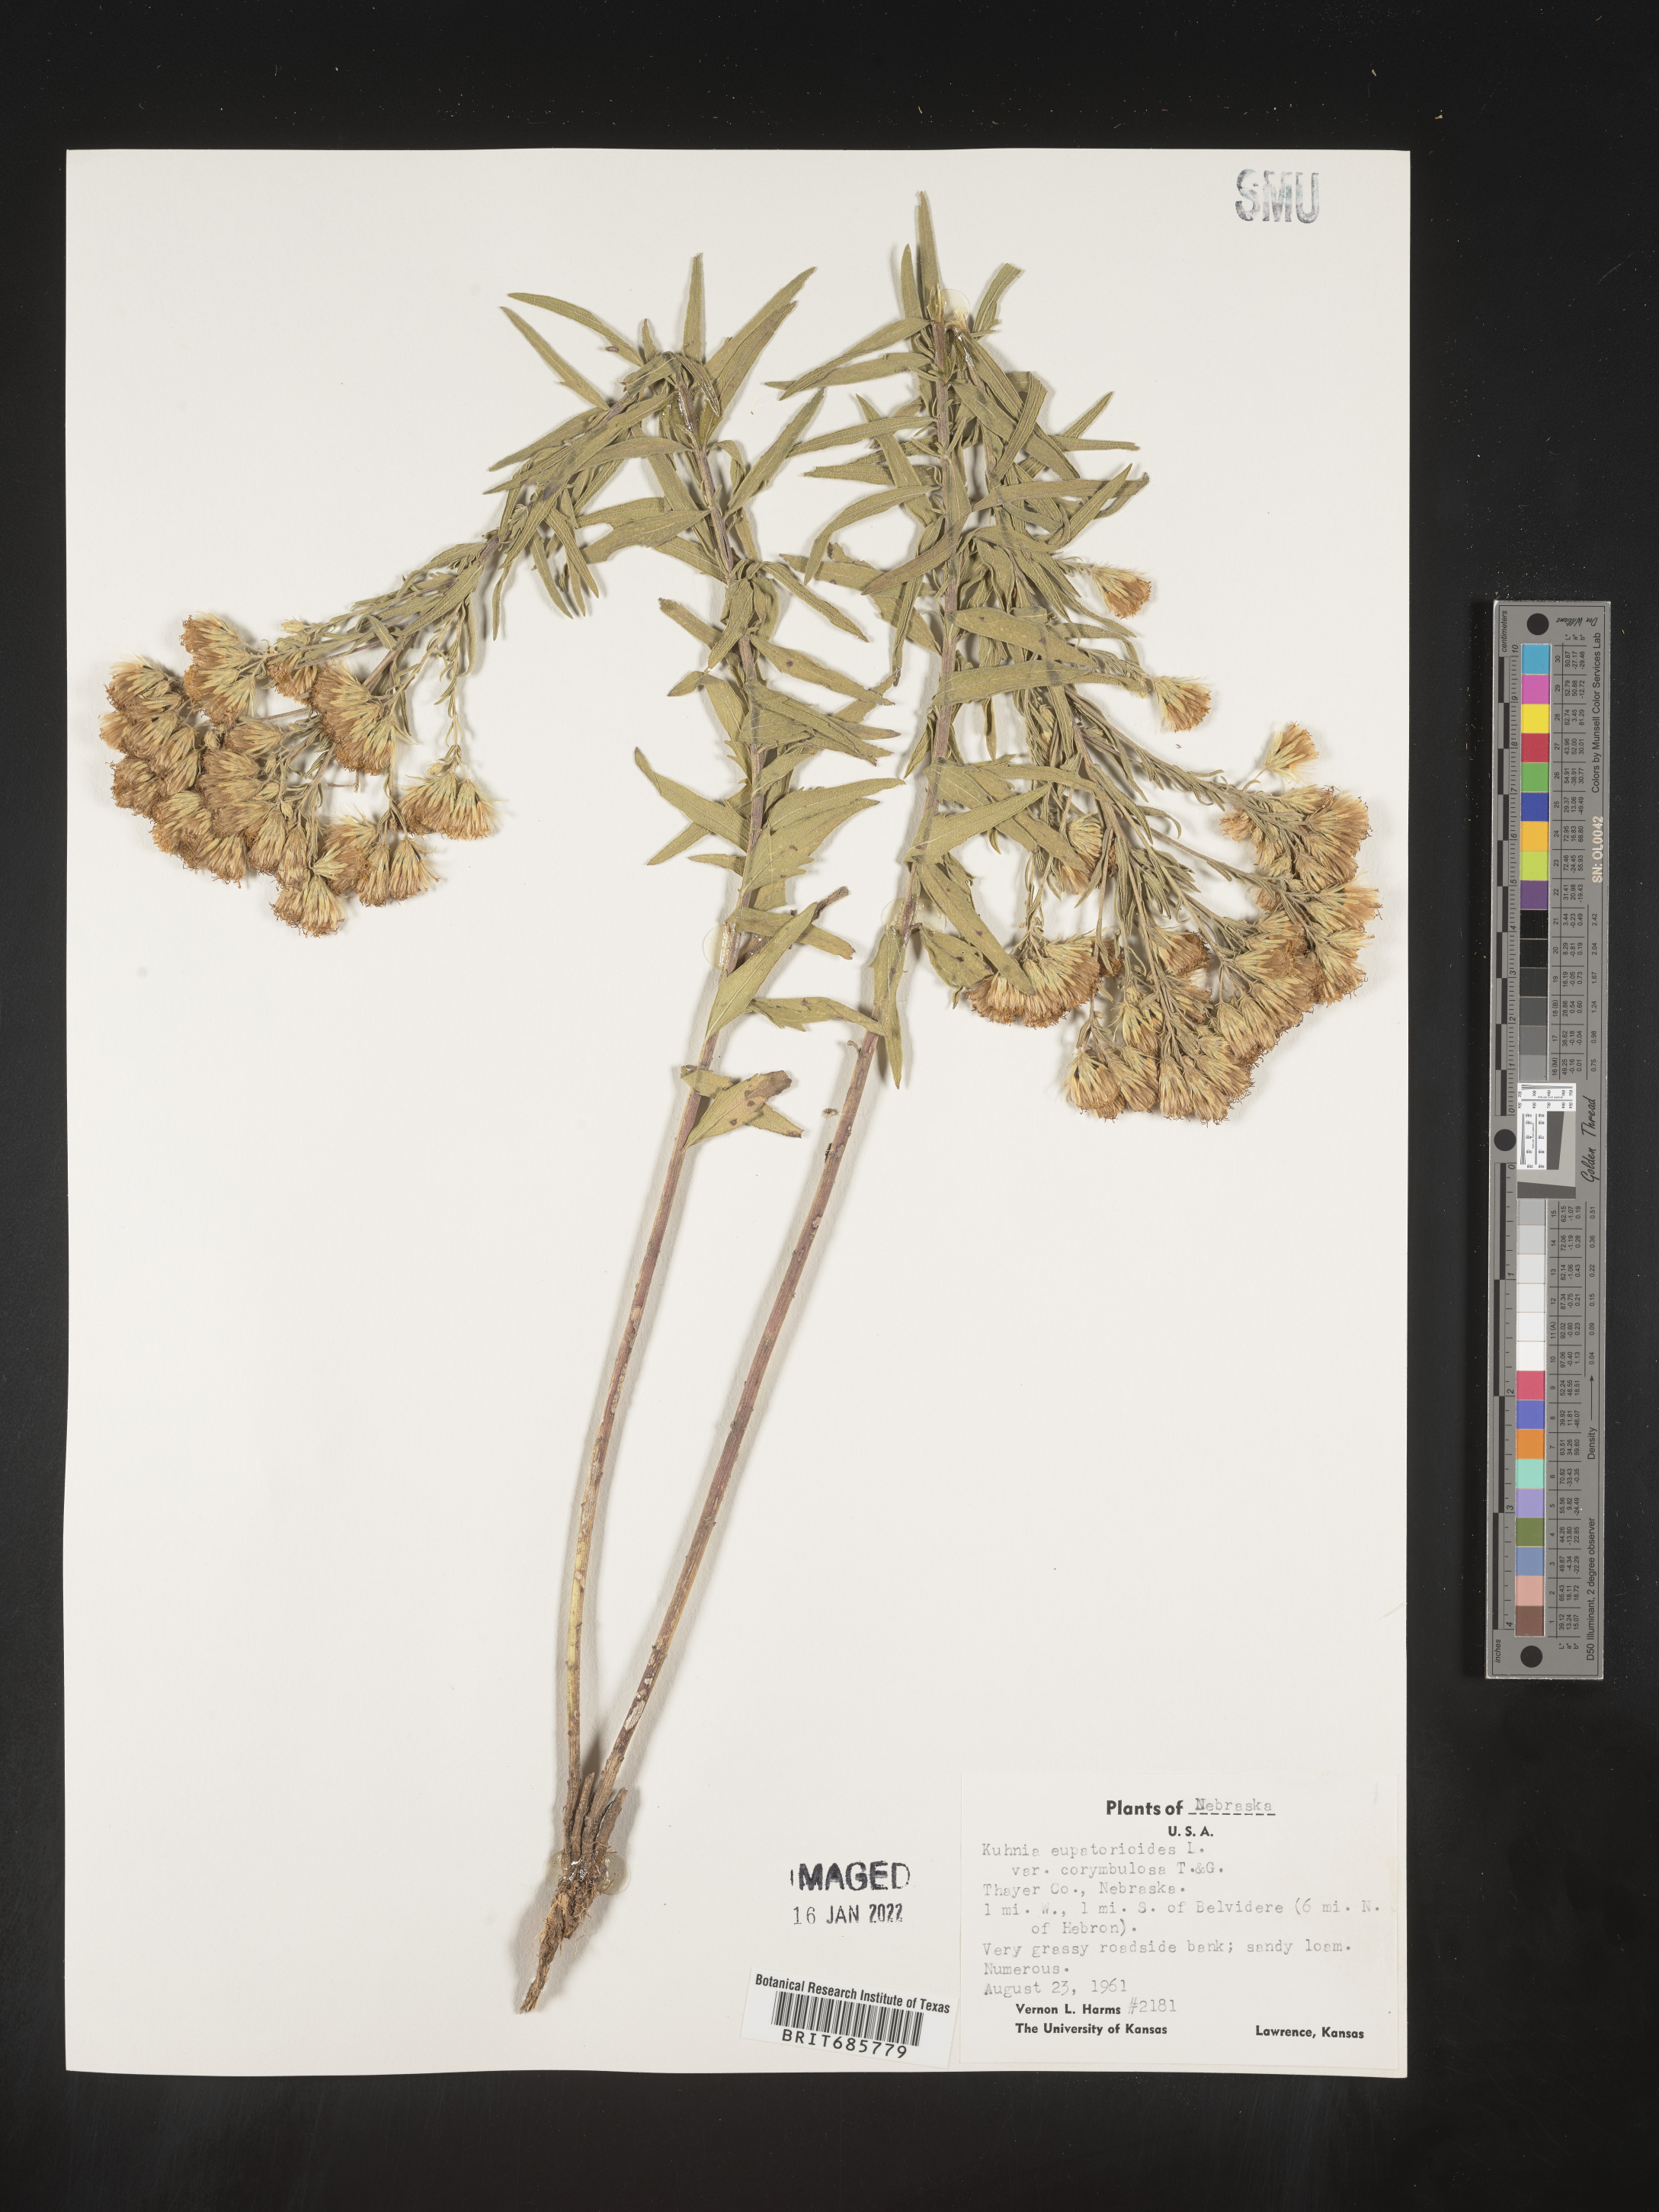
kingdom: Plantae
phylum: Tracheophyta
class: Magnoliopsida
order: Asterales
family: Asteraceae
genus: Brickellia
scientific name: Brickellia eupatorioides
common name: False boneset
